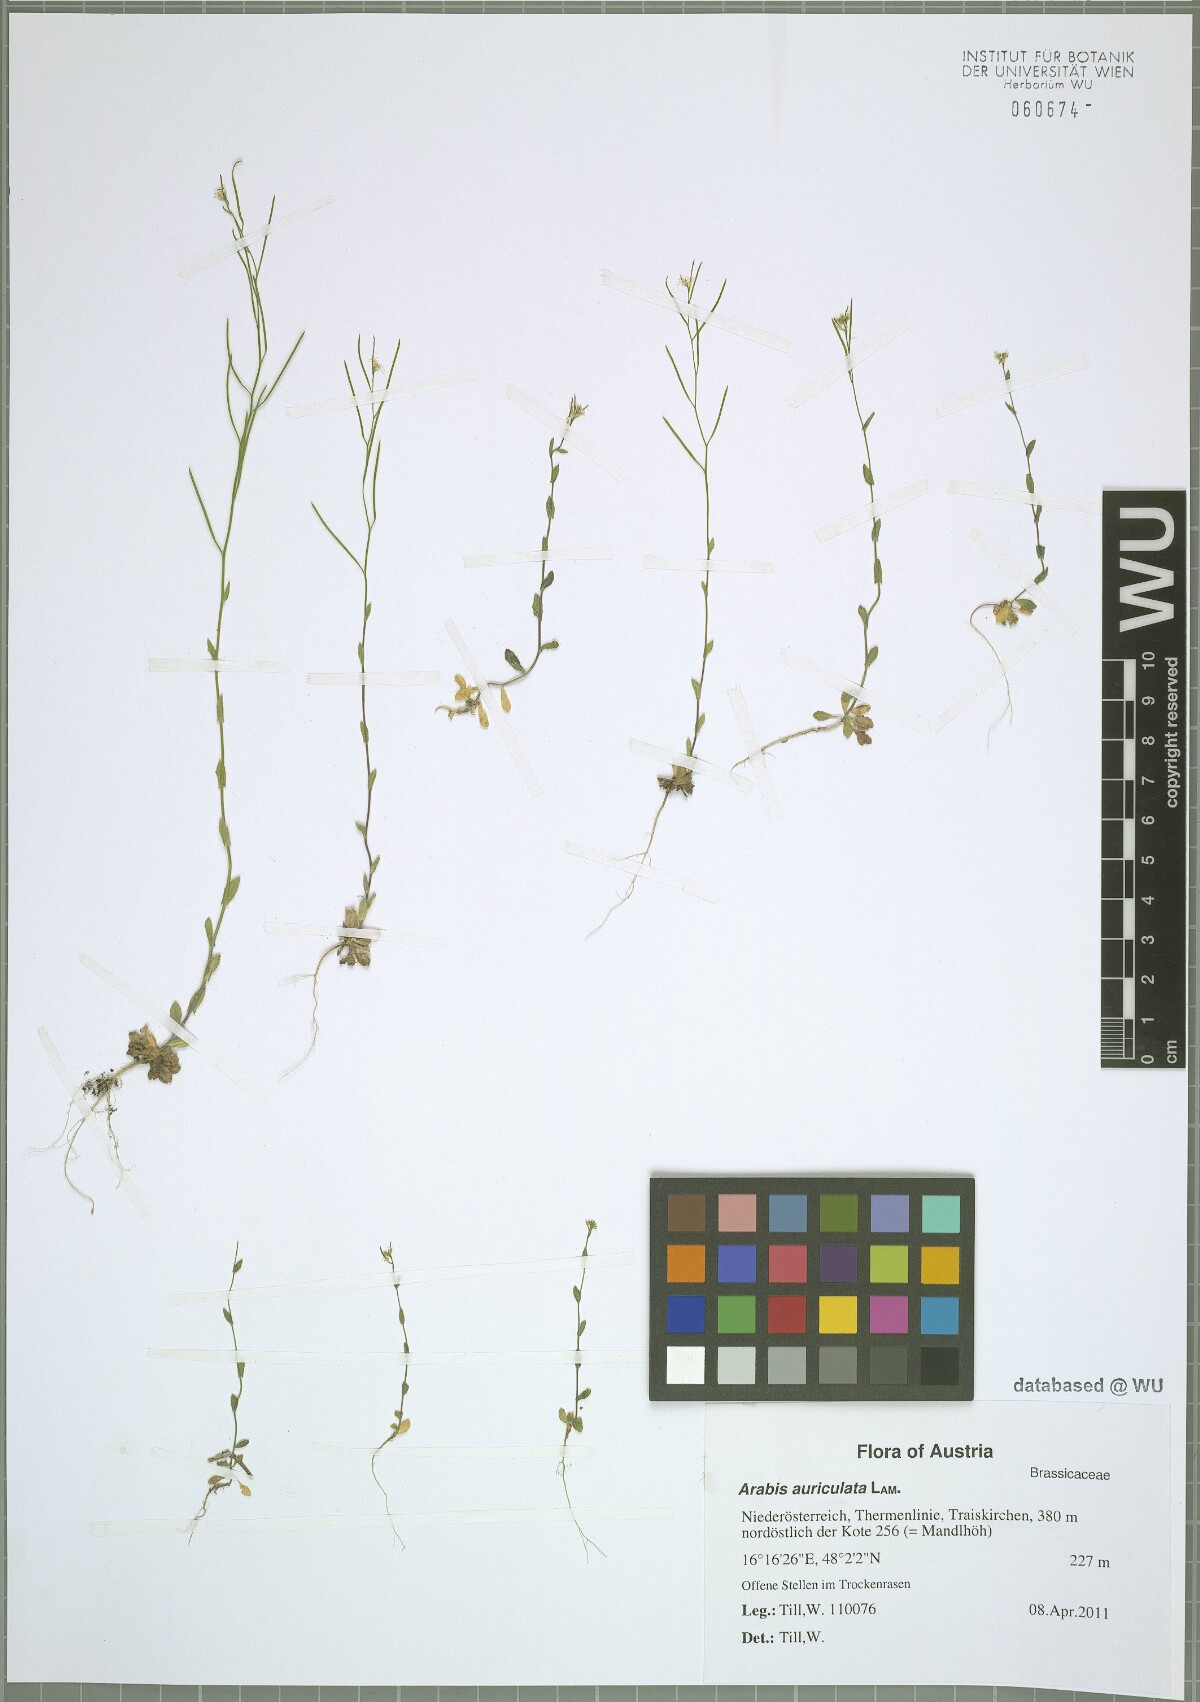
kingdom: Plantae
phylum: Tracheophyta
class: Magnoliopsida
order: Brassicales
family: Brassicaceae
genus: Arabis
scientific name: Arabis auriculata
